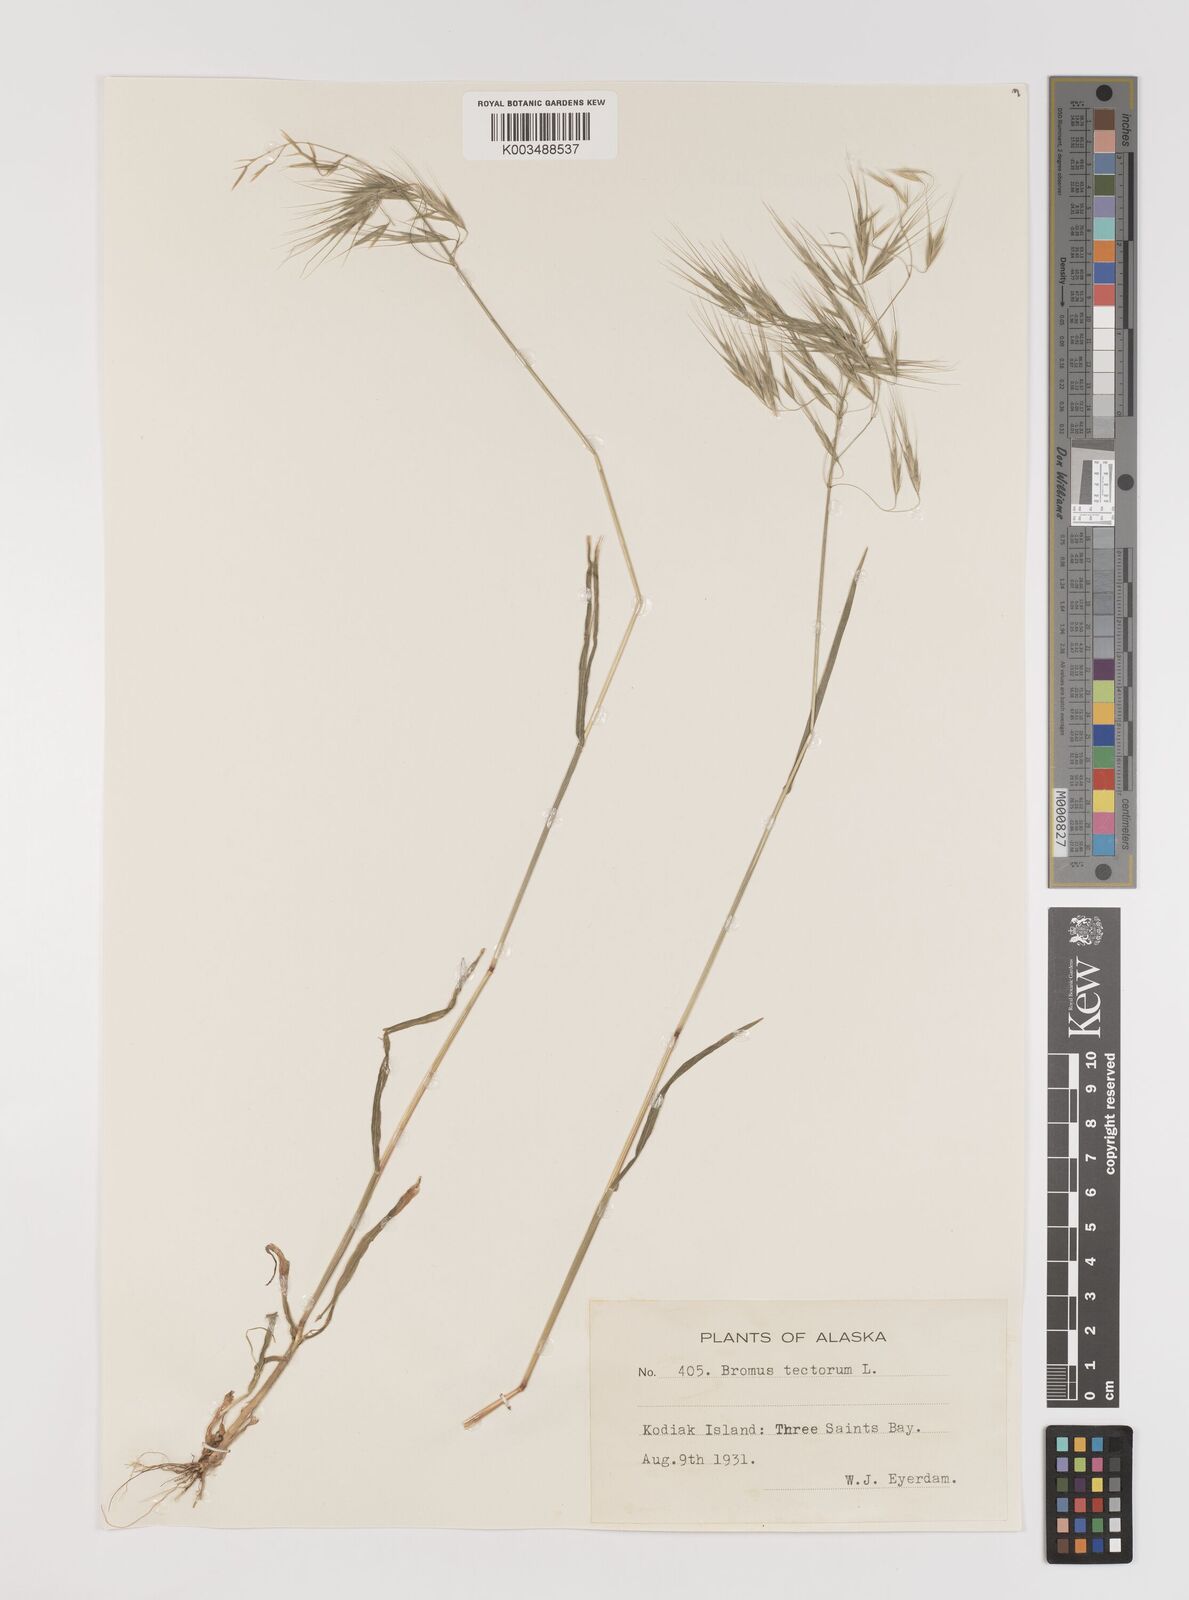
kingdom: Plantae
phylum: Tracheophyta
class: Liliopsida
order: Poales
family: Poaceae
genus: Bromus
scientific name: Bromus tectorum
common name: Cheatgrass
